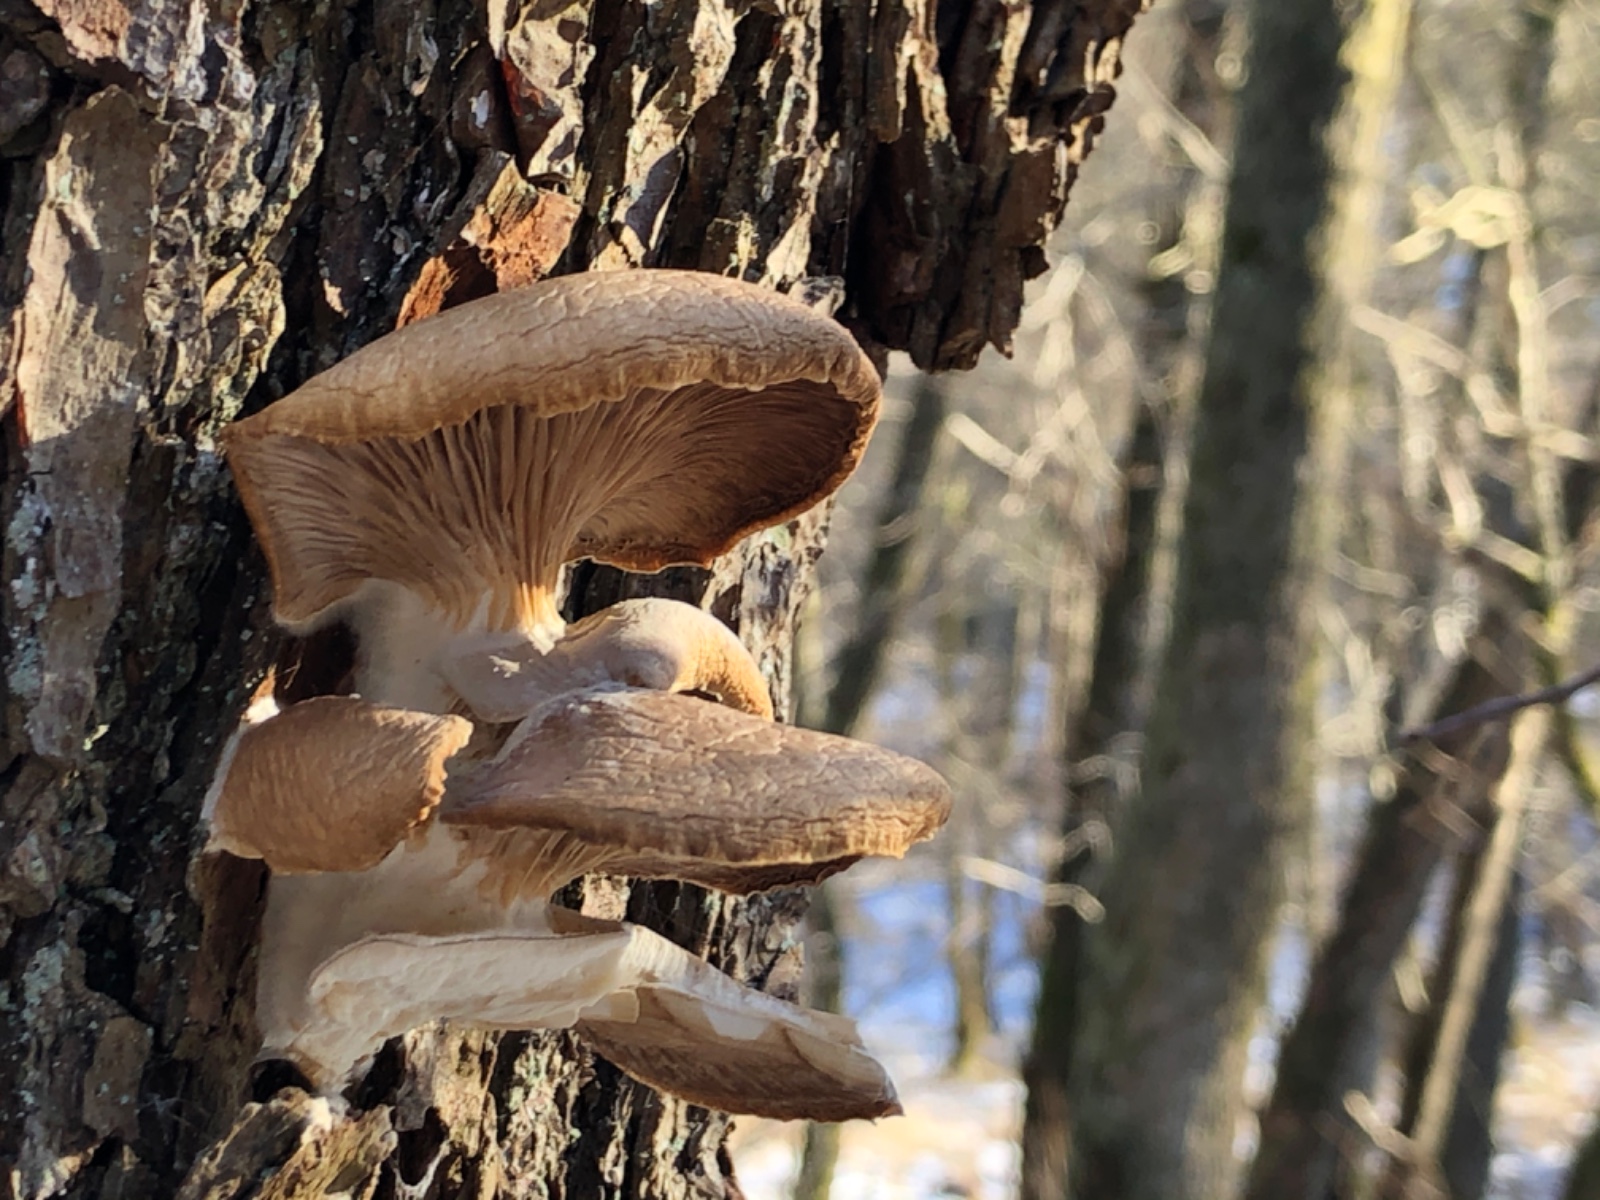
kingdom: Fungi
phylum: Basidiomycota
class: Agaricomycetes
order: Agaricales
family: Pleurotaceae
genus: Pleurotus
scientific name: Pleurotus ostreatus
